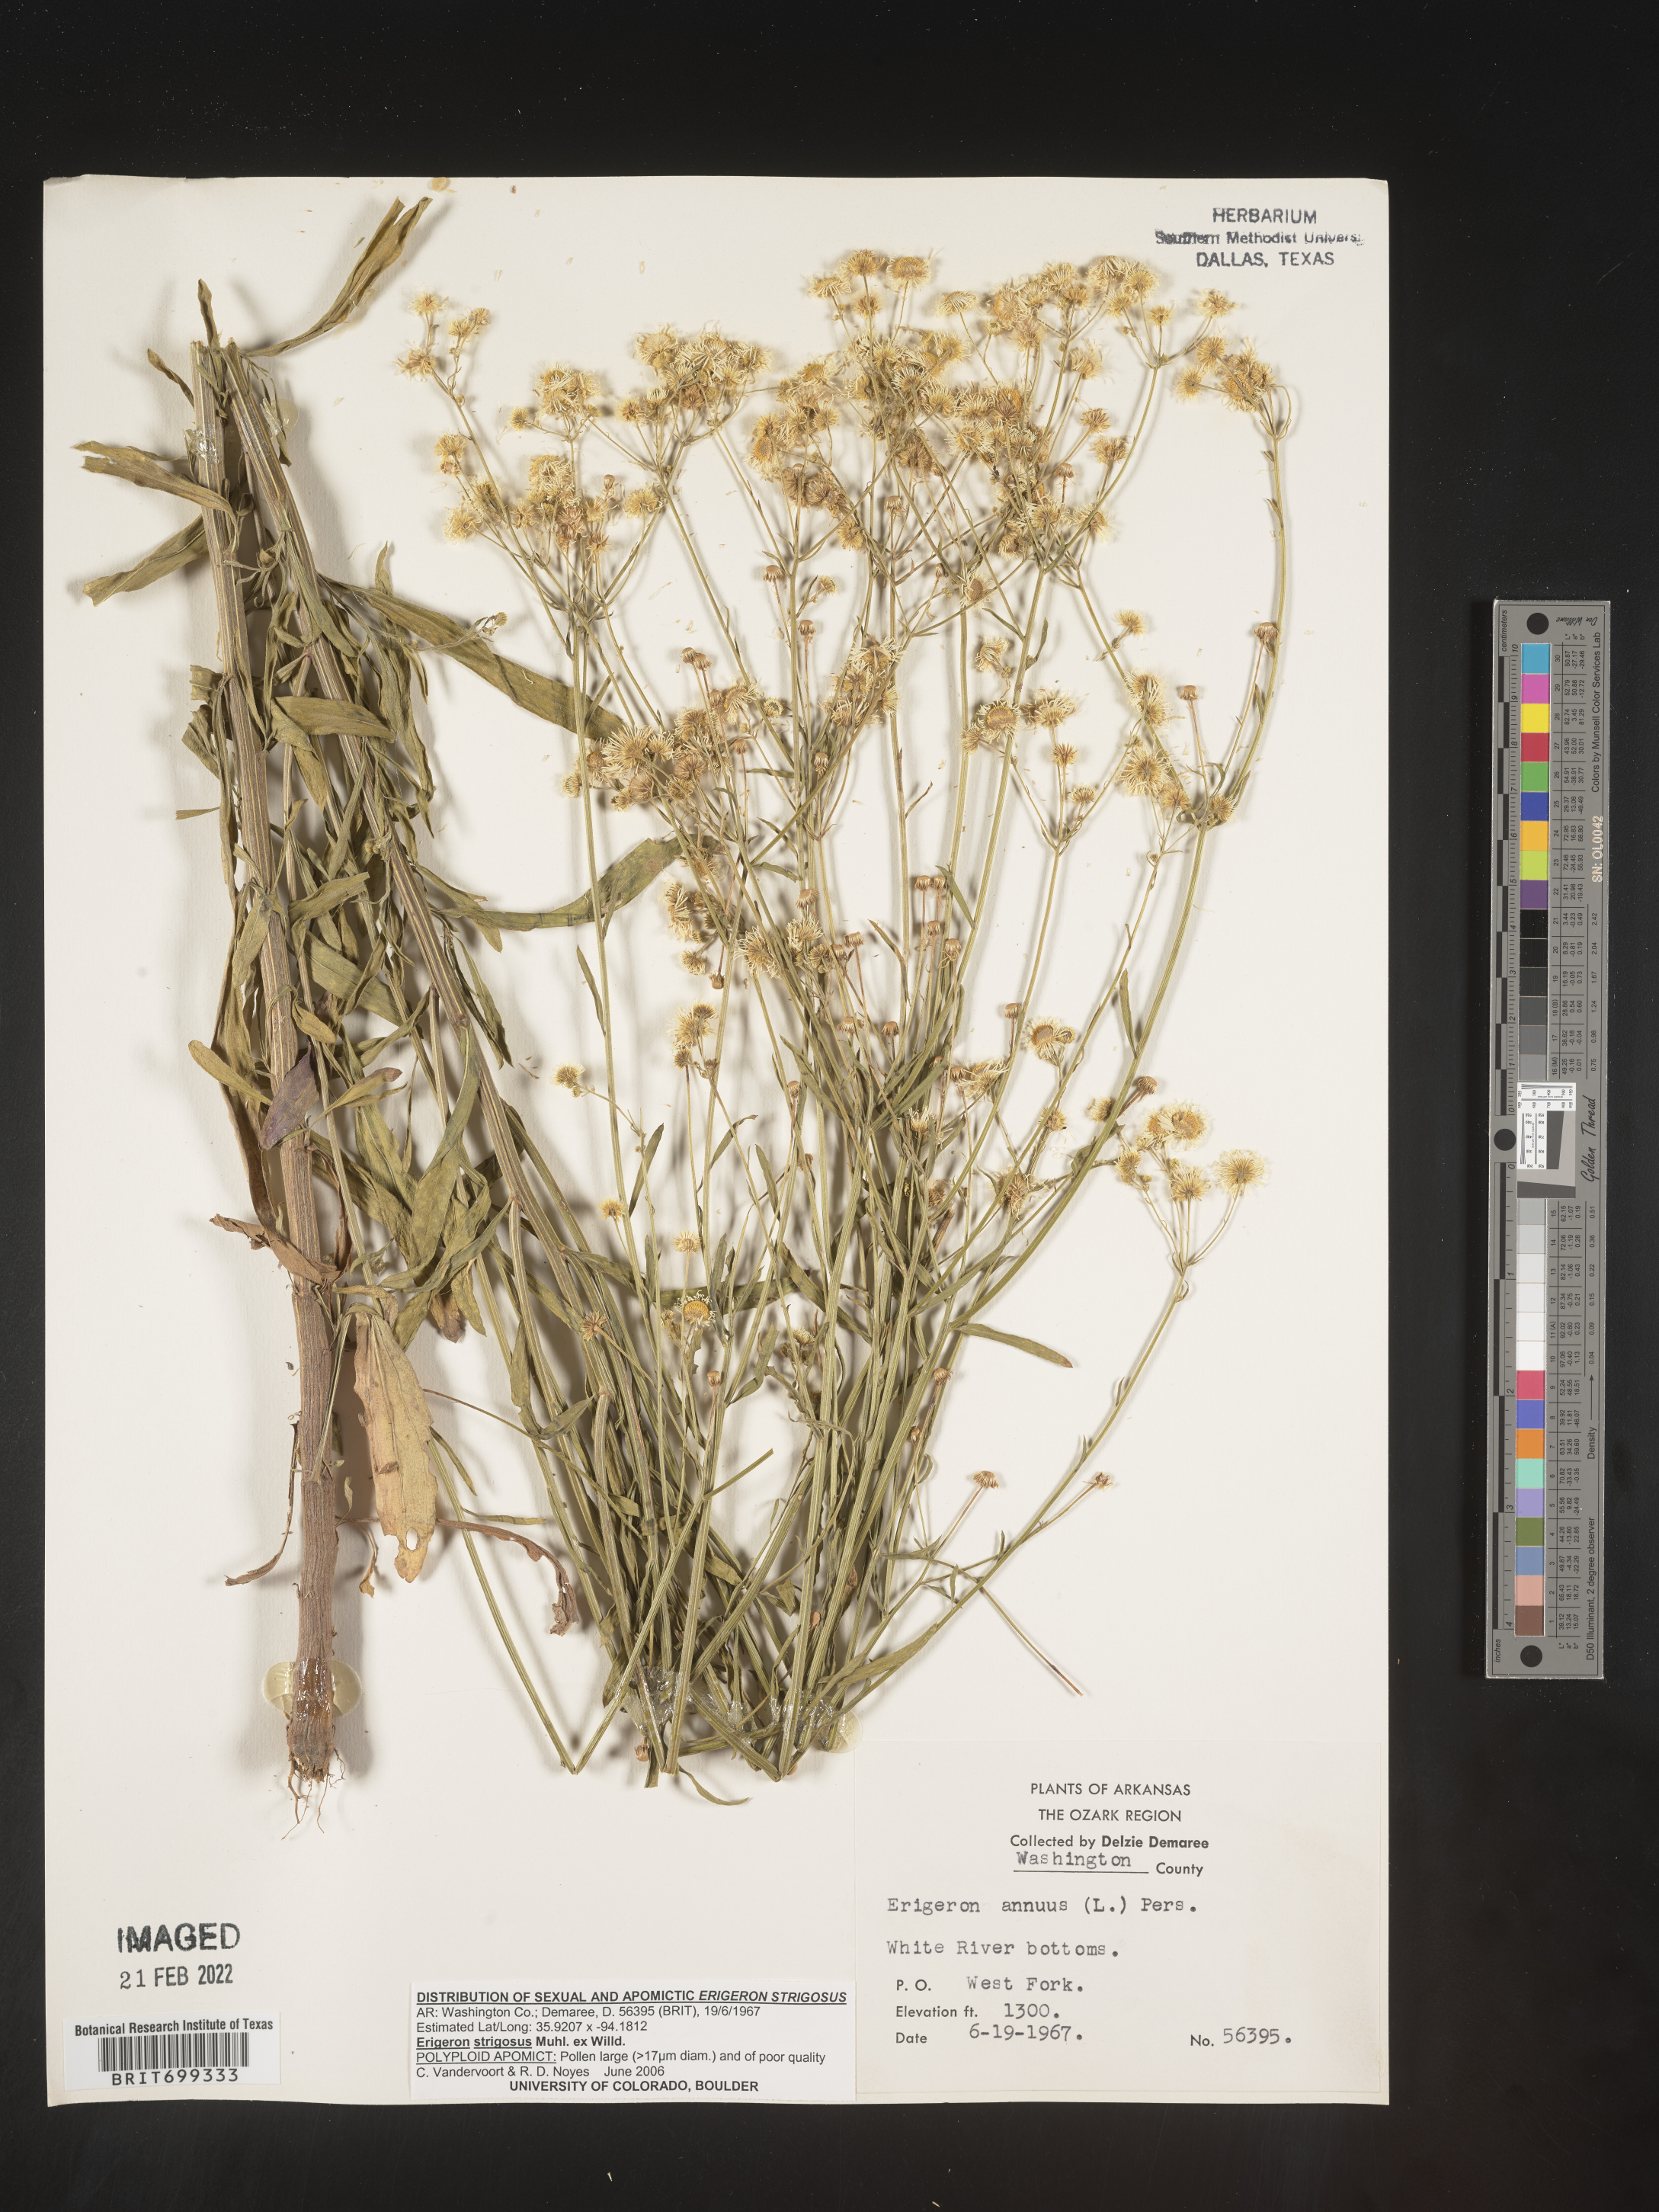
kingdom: Plantae
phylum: Tracheophyta
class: Magnoliopsida
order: Asterales
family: Asteraceae
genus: Erigeron
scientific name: Erigeron strigosus
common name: Common eastern fleabane
